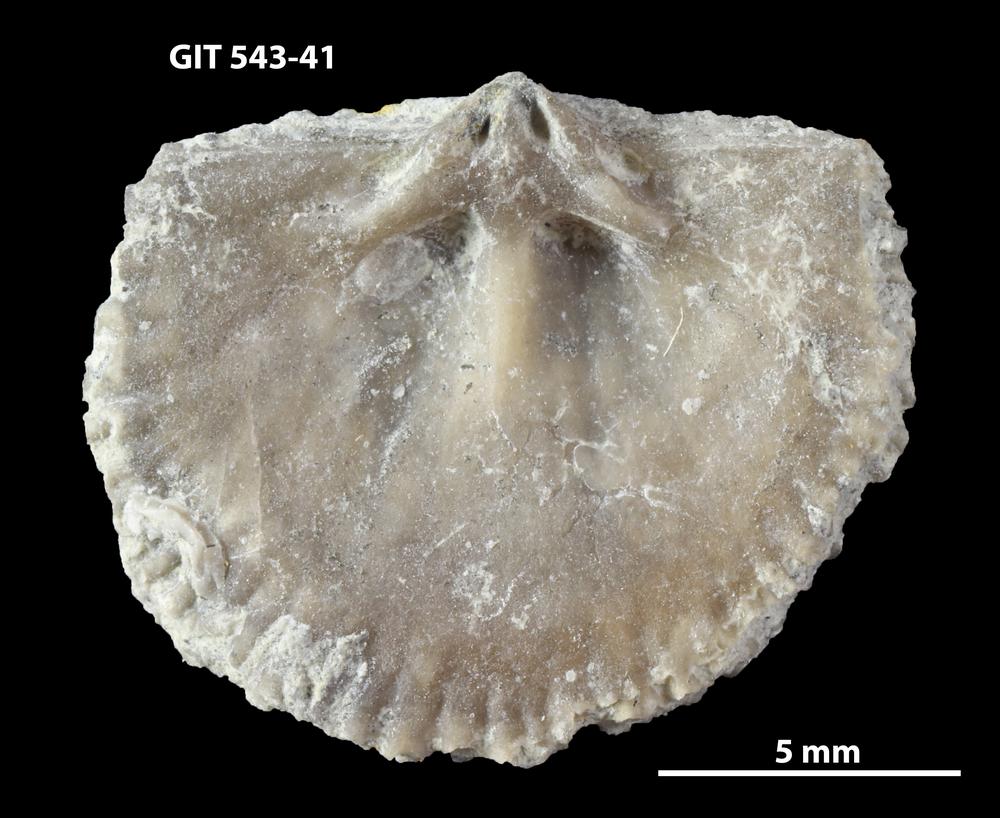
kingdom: Animalia
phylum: Brachiopoda
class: Rhynchonellata
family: Clitambonitidae
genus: Clitambonites
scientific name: Clitambonites Orthisina schmidti
